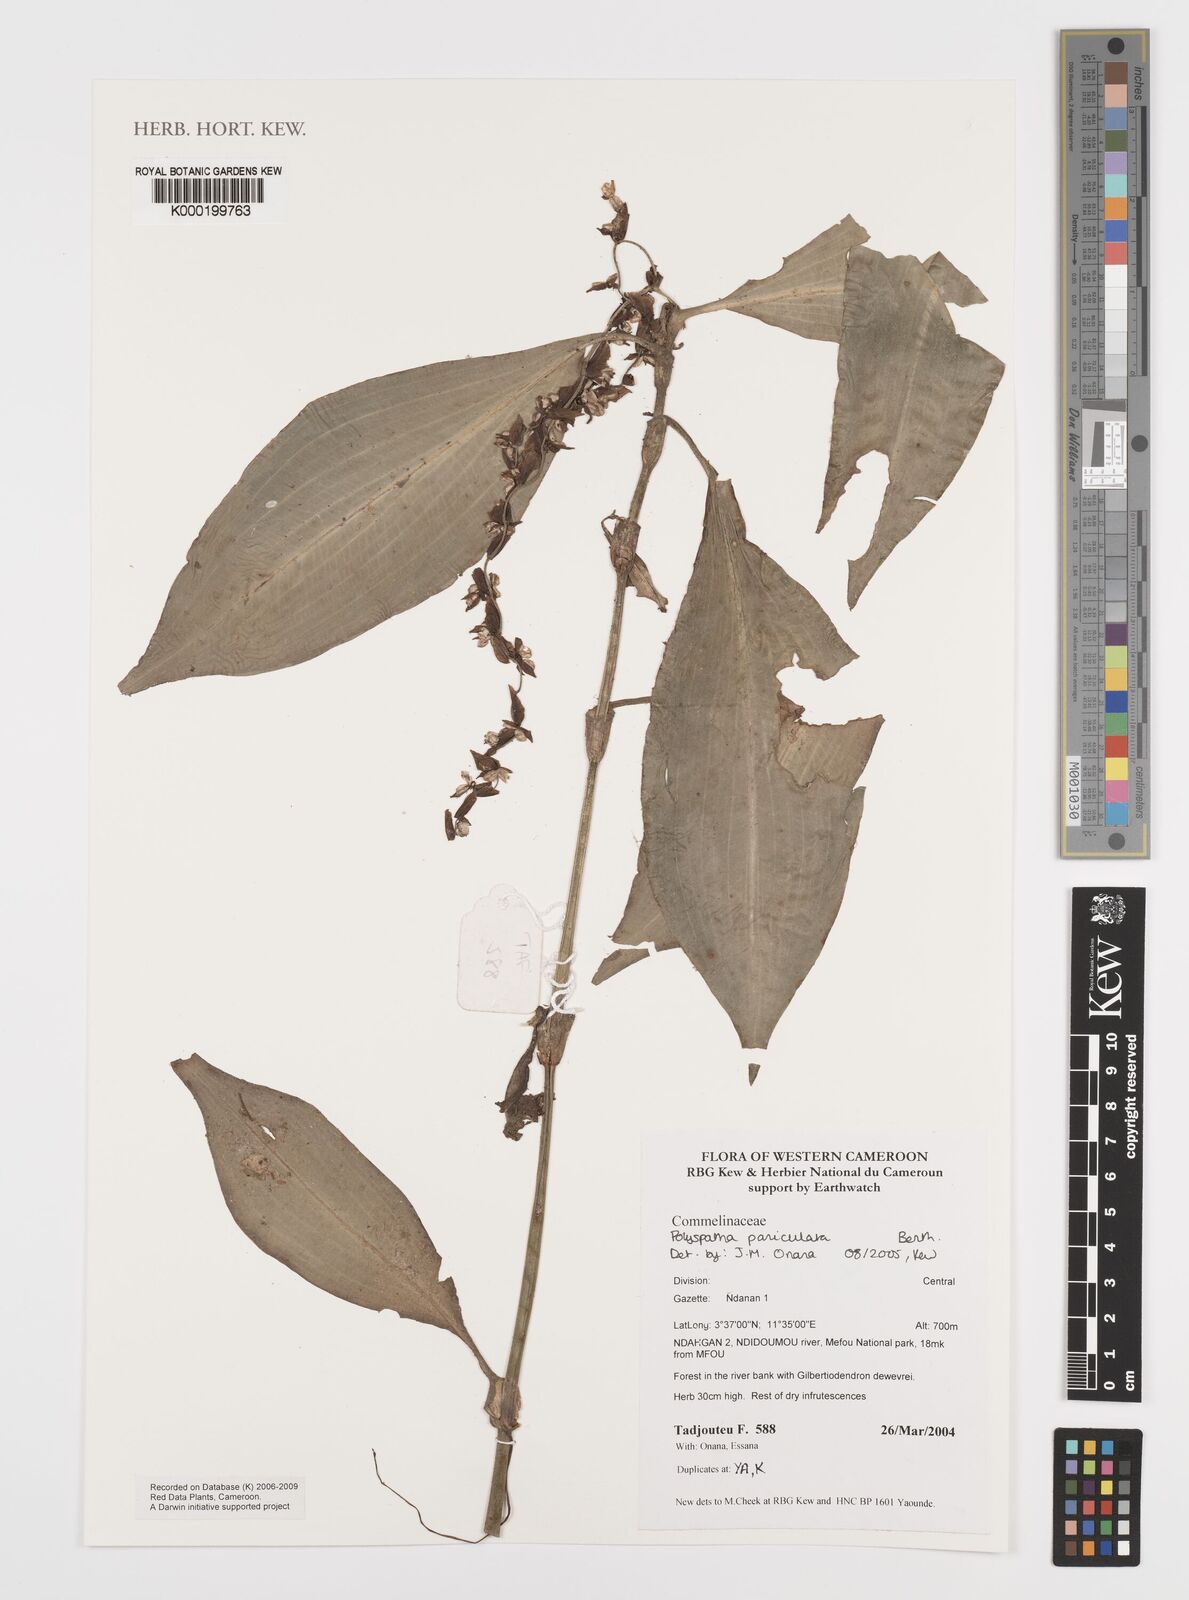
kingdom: Plantae
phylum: Tracheophyta
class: Liliopsida
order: Commelinales
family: Commelinaceae
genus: Polyspatha
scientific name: Polyspatha paniculata
